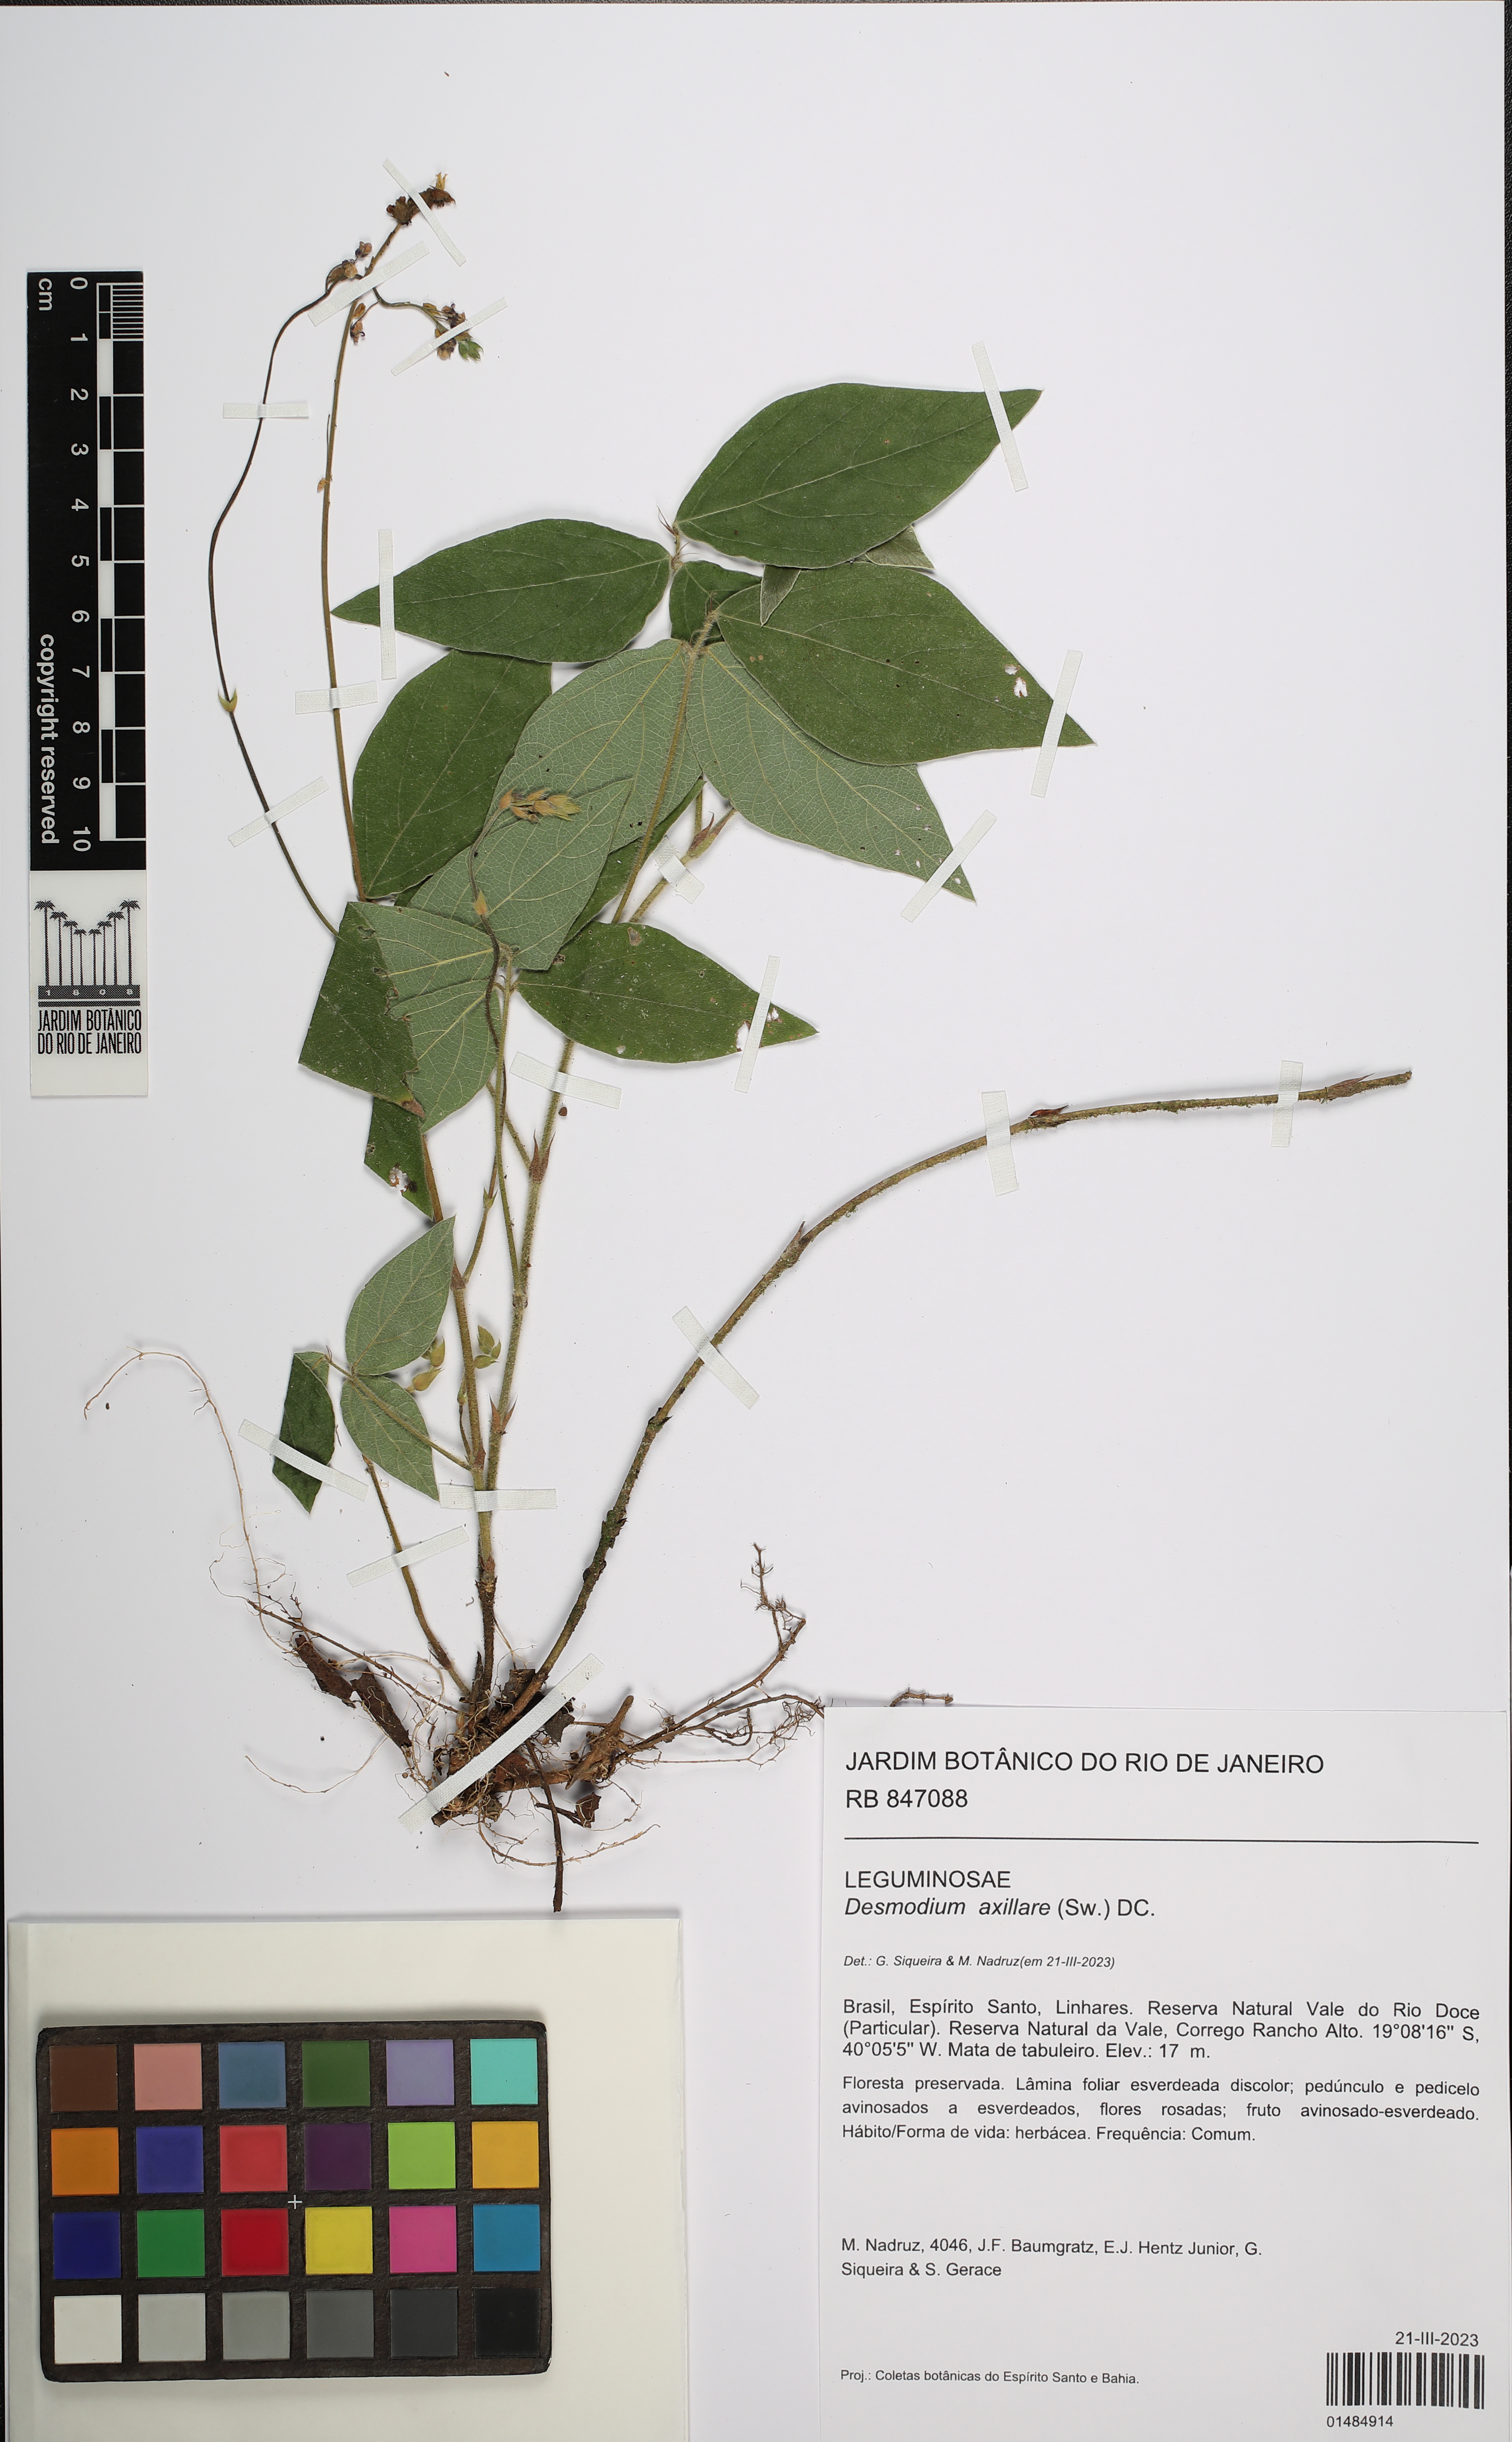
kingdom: Plantae
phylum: Tracheophyta
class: Magnoliopsida
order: Fabales
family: Fabaceae
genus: Desmodium
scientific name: Desmodium axillare
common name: Wire with
